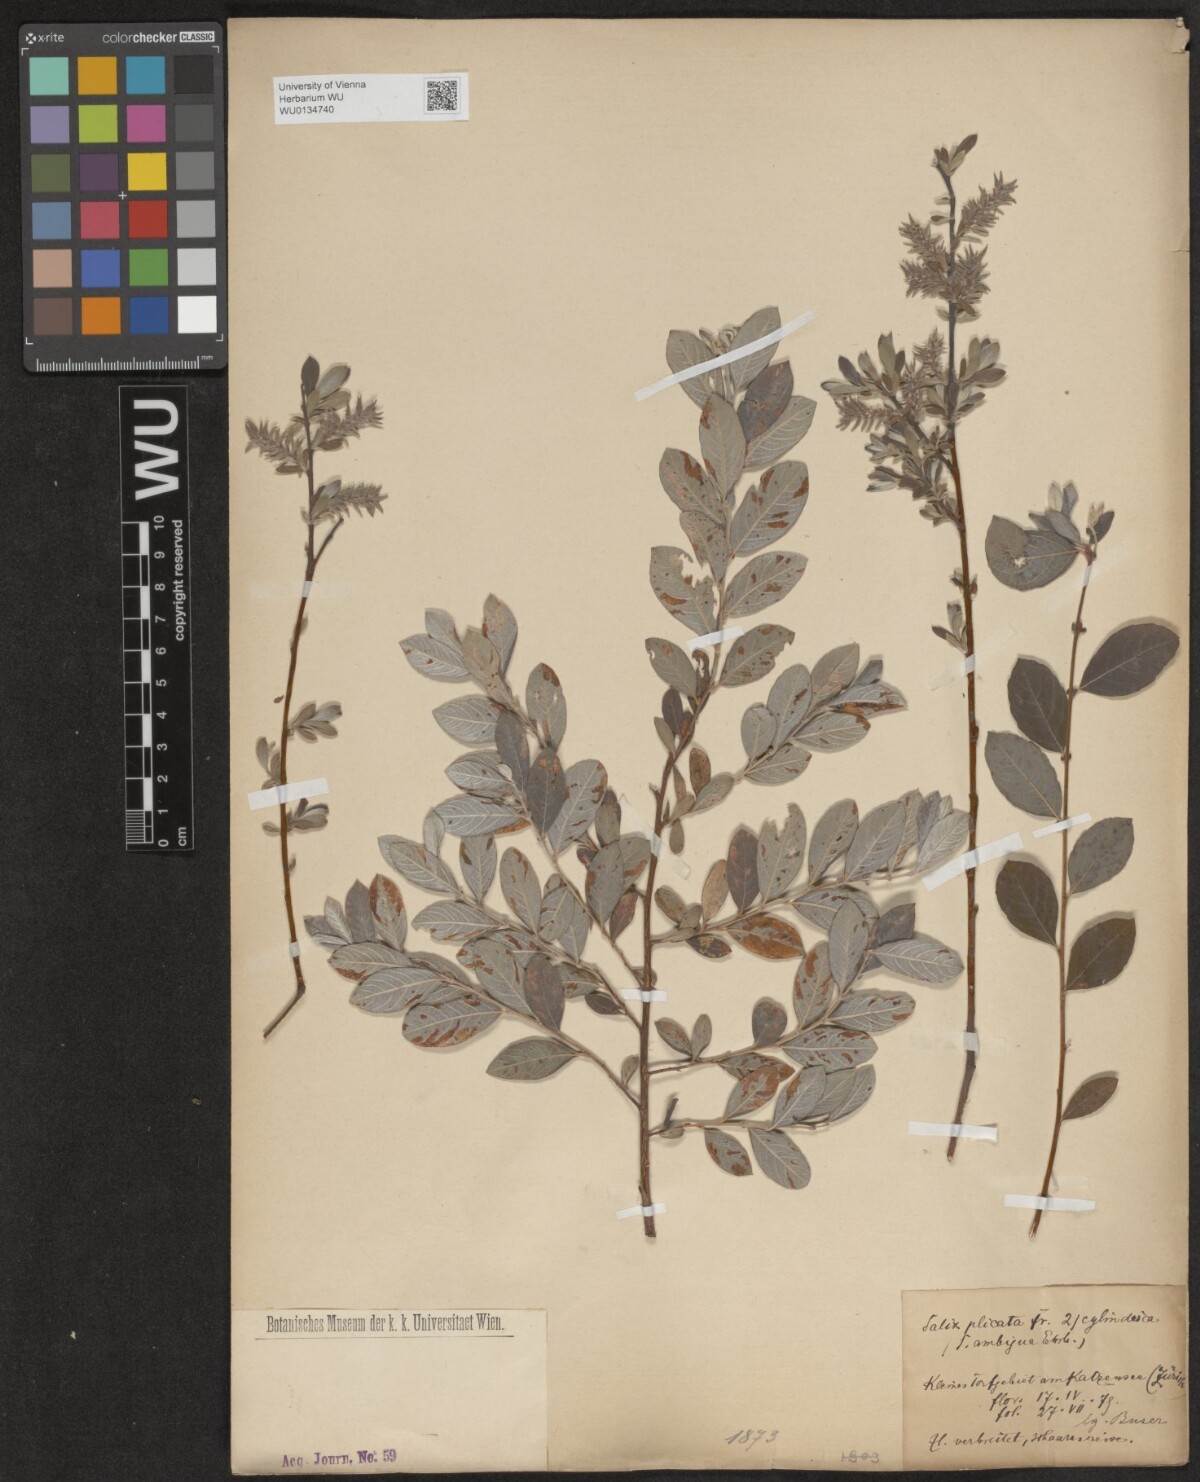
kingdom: Plantae
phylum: Tracheophyta
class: Magnoliopsida
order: Malpighiales
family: Salicaceae
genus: Salix
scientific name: Salix
